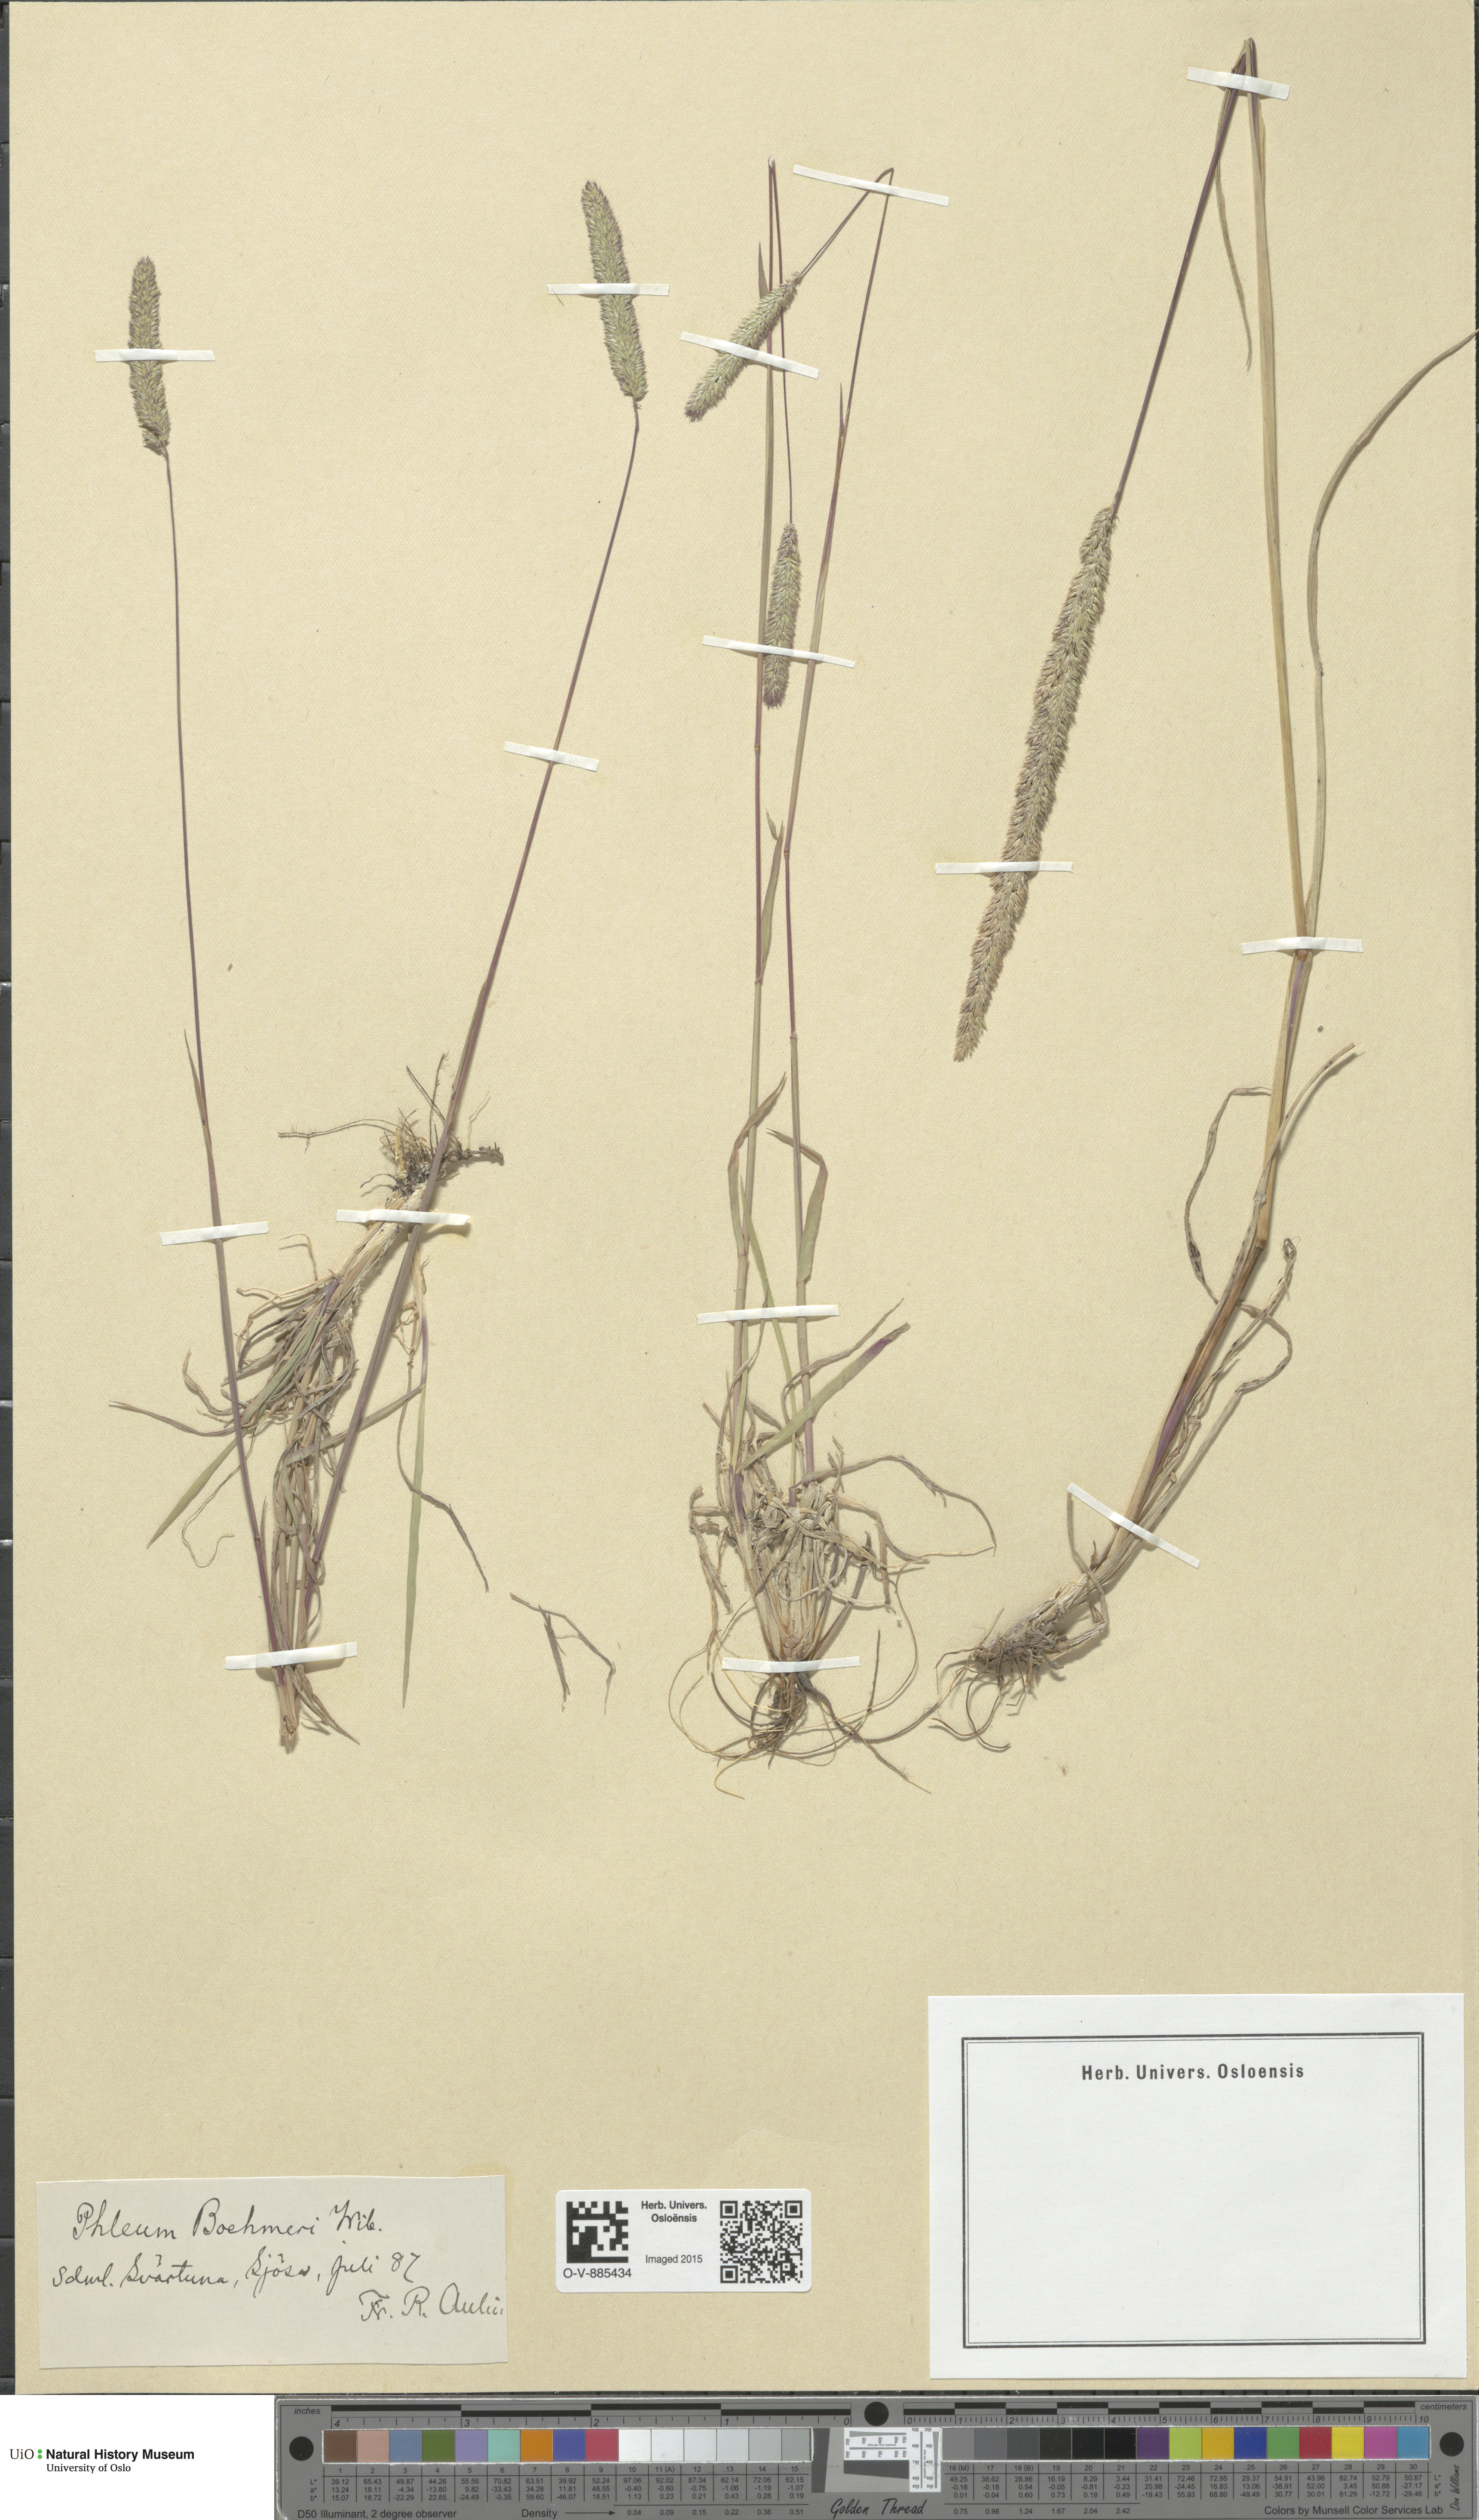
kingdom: Plantae
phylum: Tracheophyta
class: Liliopsida
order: Poales
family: Poaceae
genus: Phleum
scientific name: Phleum phleoides
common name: Purple-stem cat's-tail
